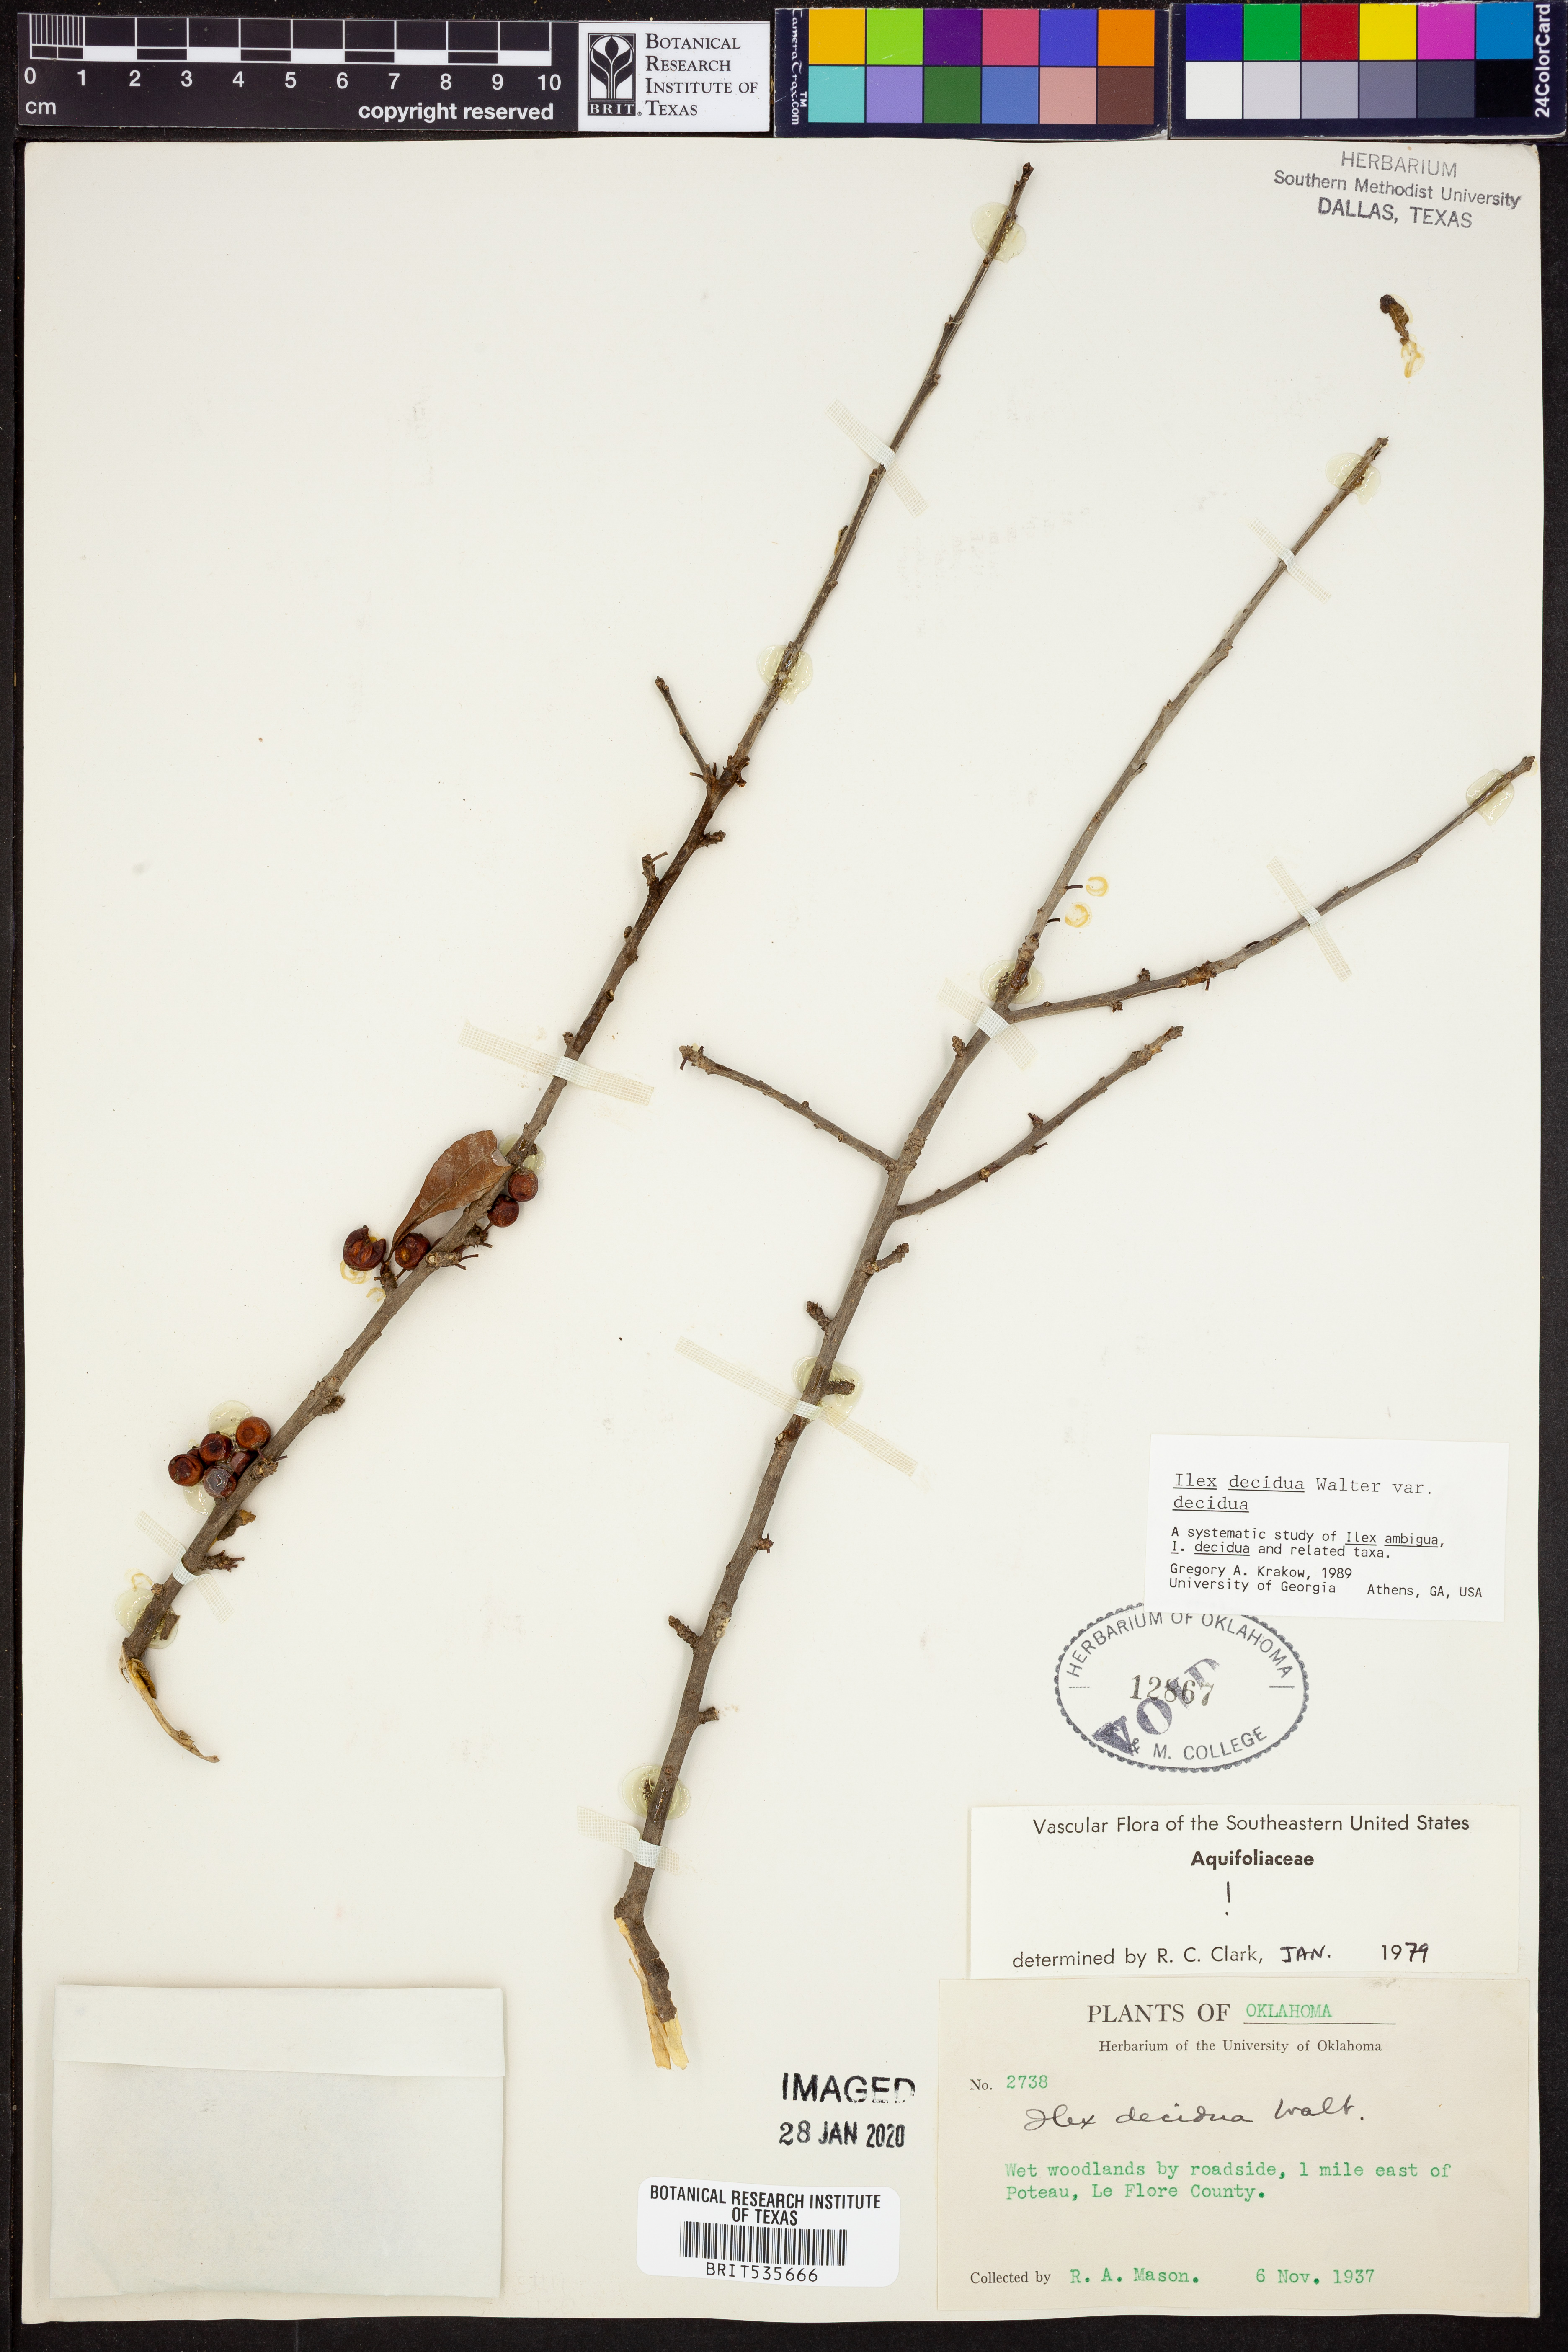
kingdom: Plantae
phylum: Tracheophyta
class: Magnoliopsida
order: Aquifoliales
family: Aquifoliaceae
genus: Ilex
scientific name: Ilex decidua
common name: Possum-haw
